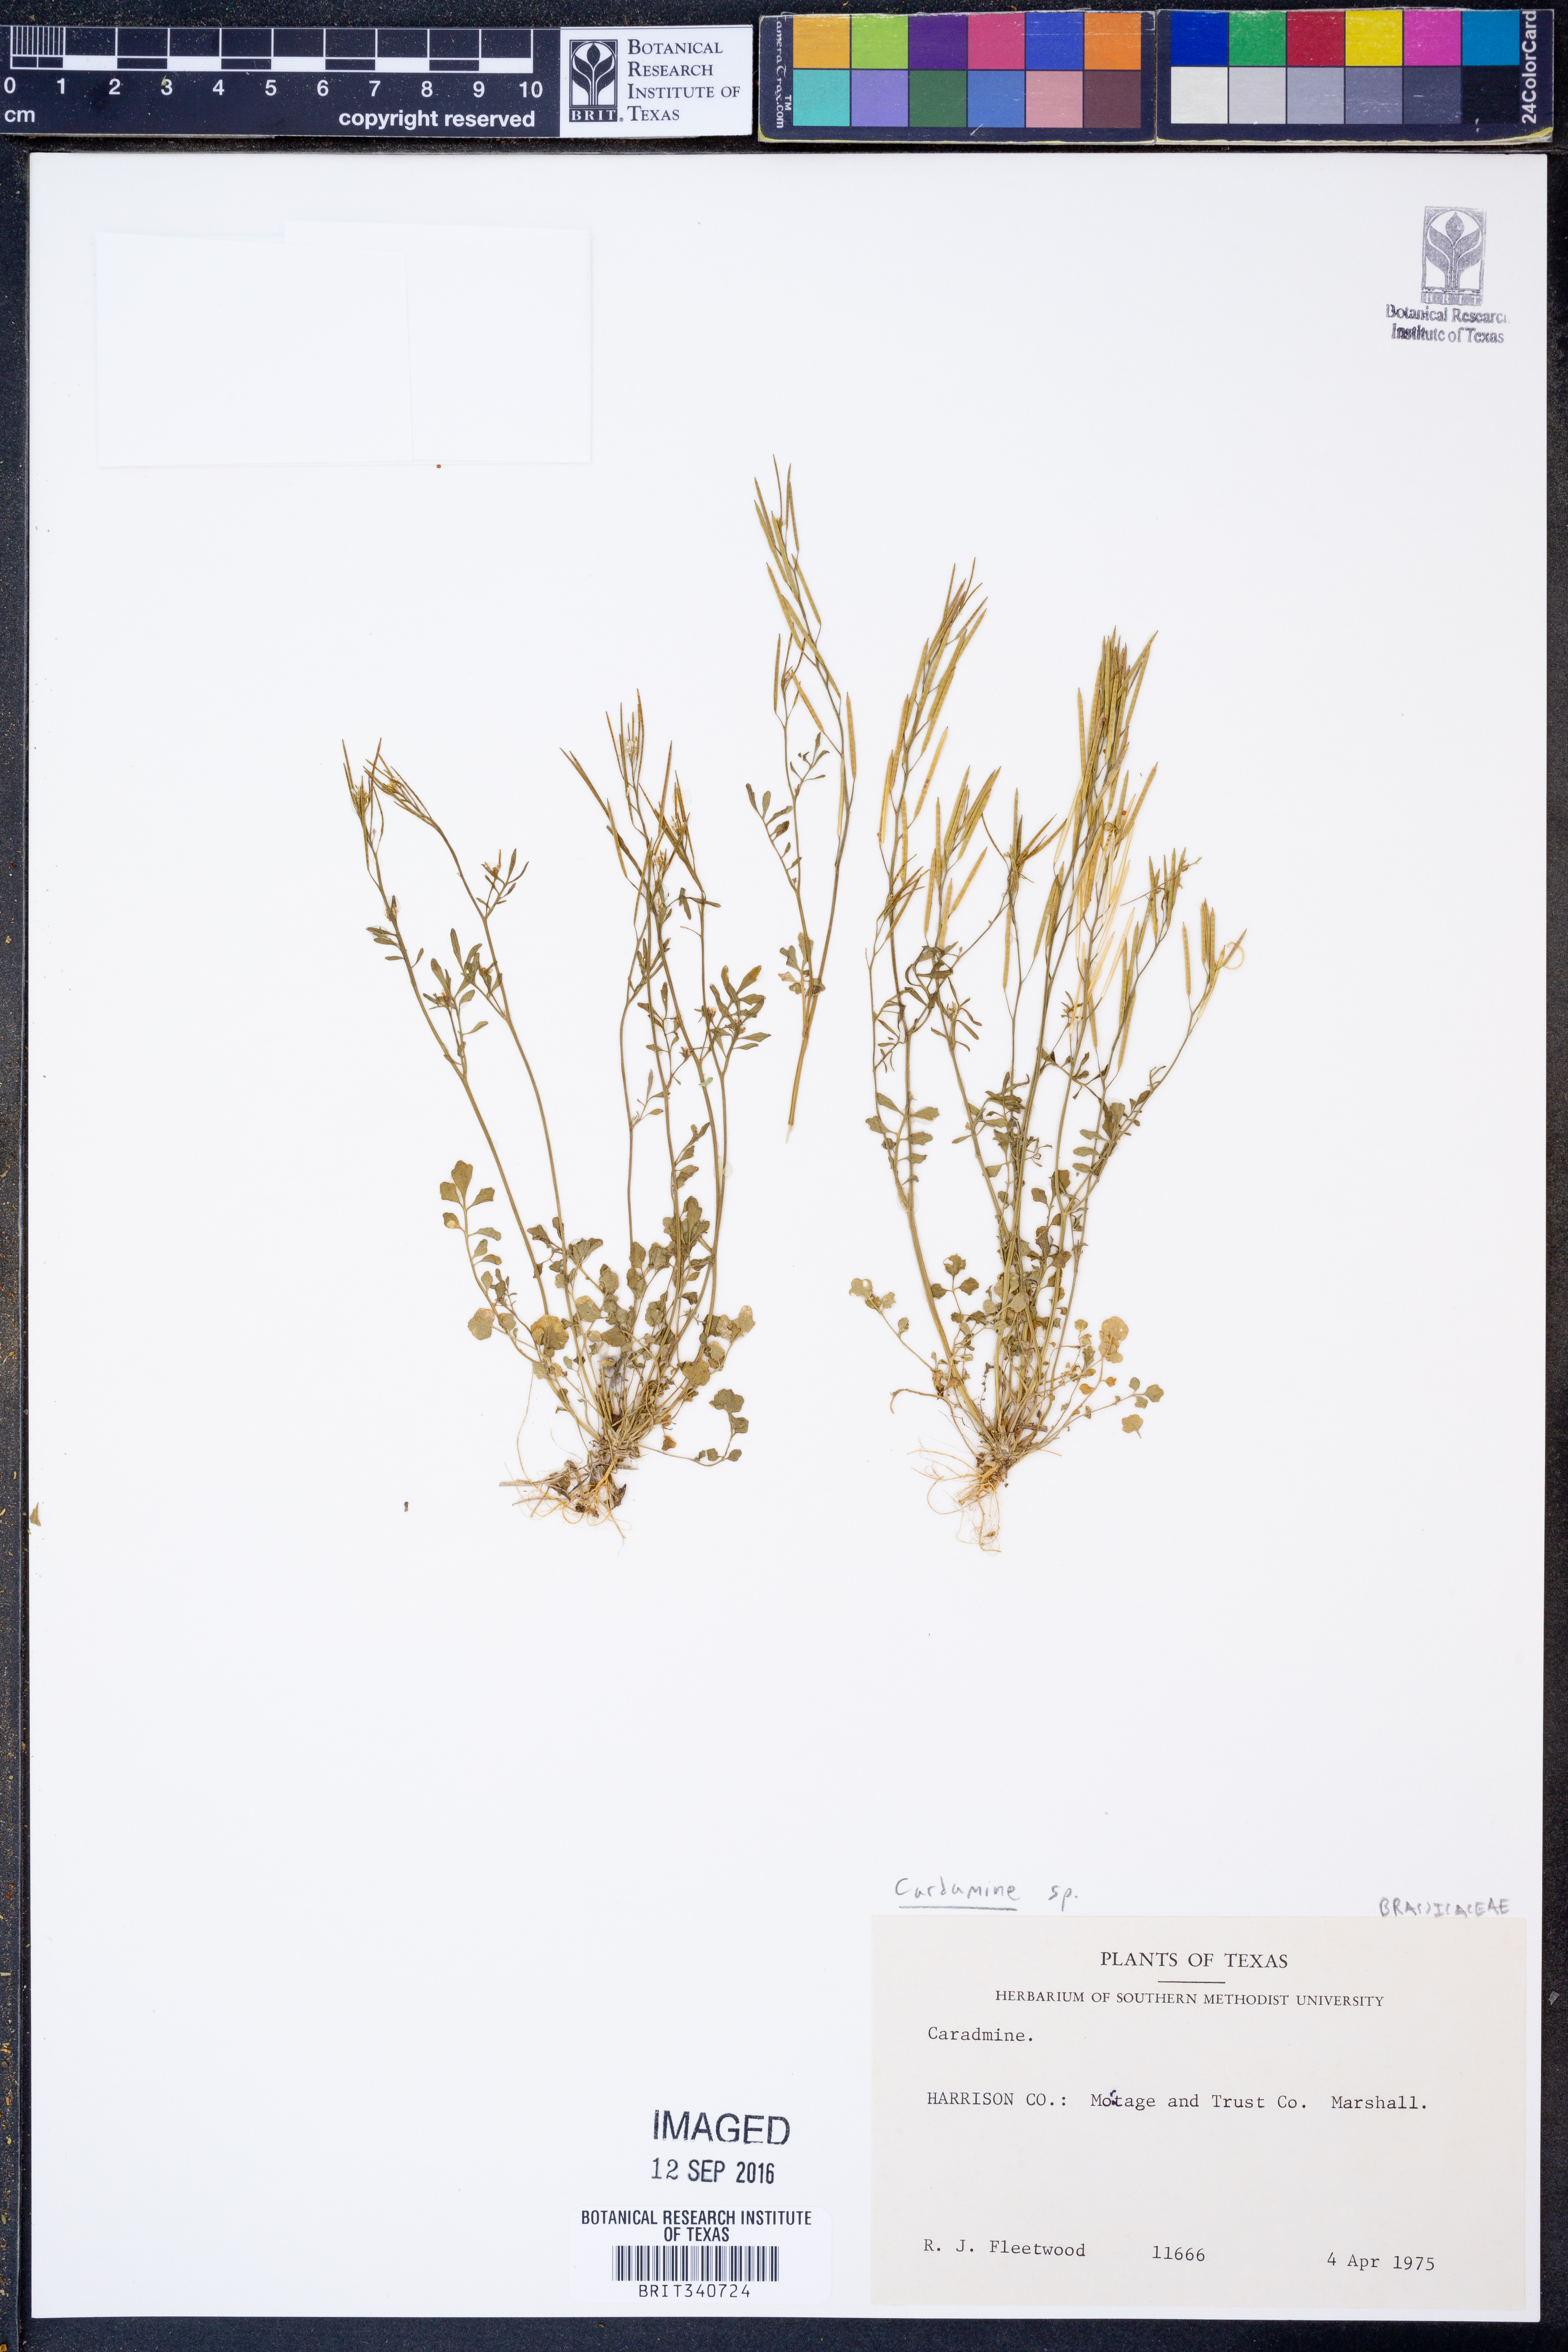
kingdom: Plantae
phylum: Tracheophyta
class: Magnoliopsida
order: Brassicales
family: Brassicaceae
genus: Cardamine
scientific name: Cardamine
